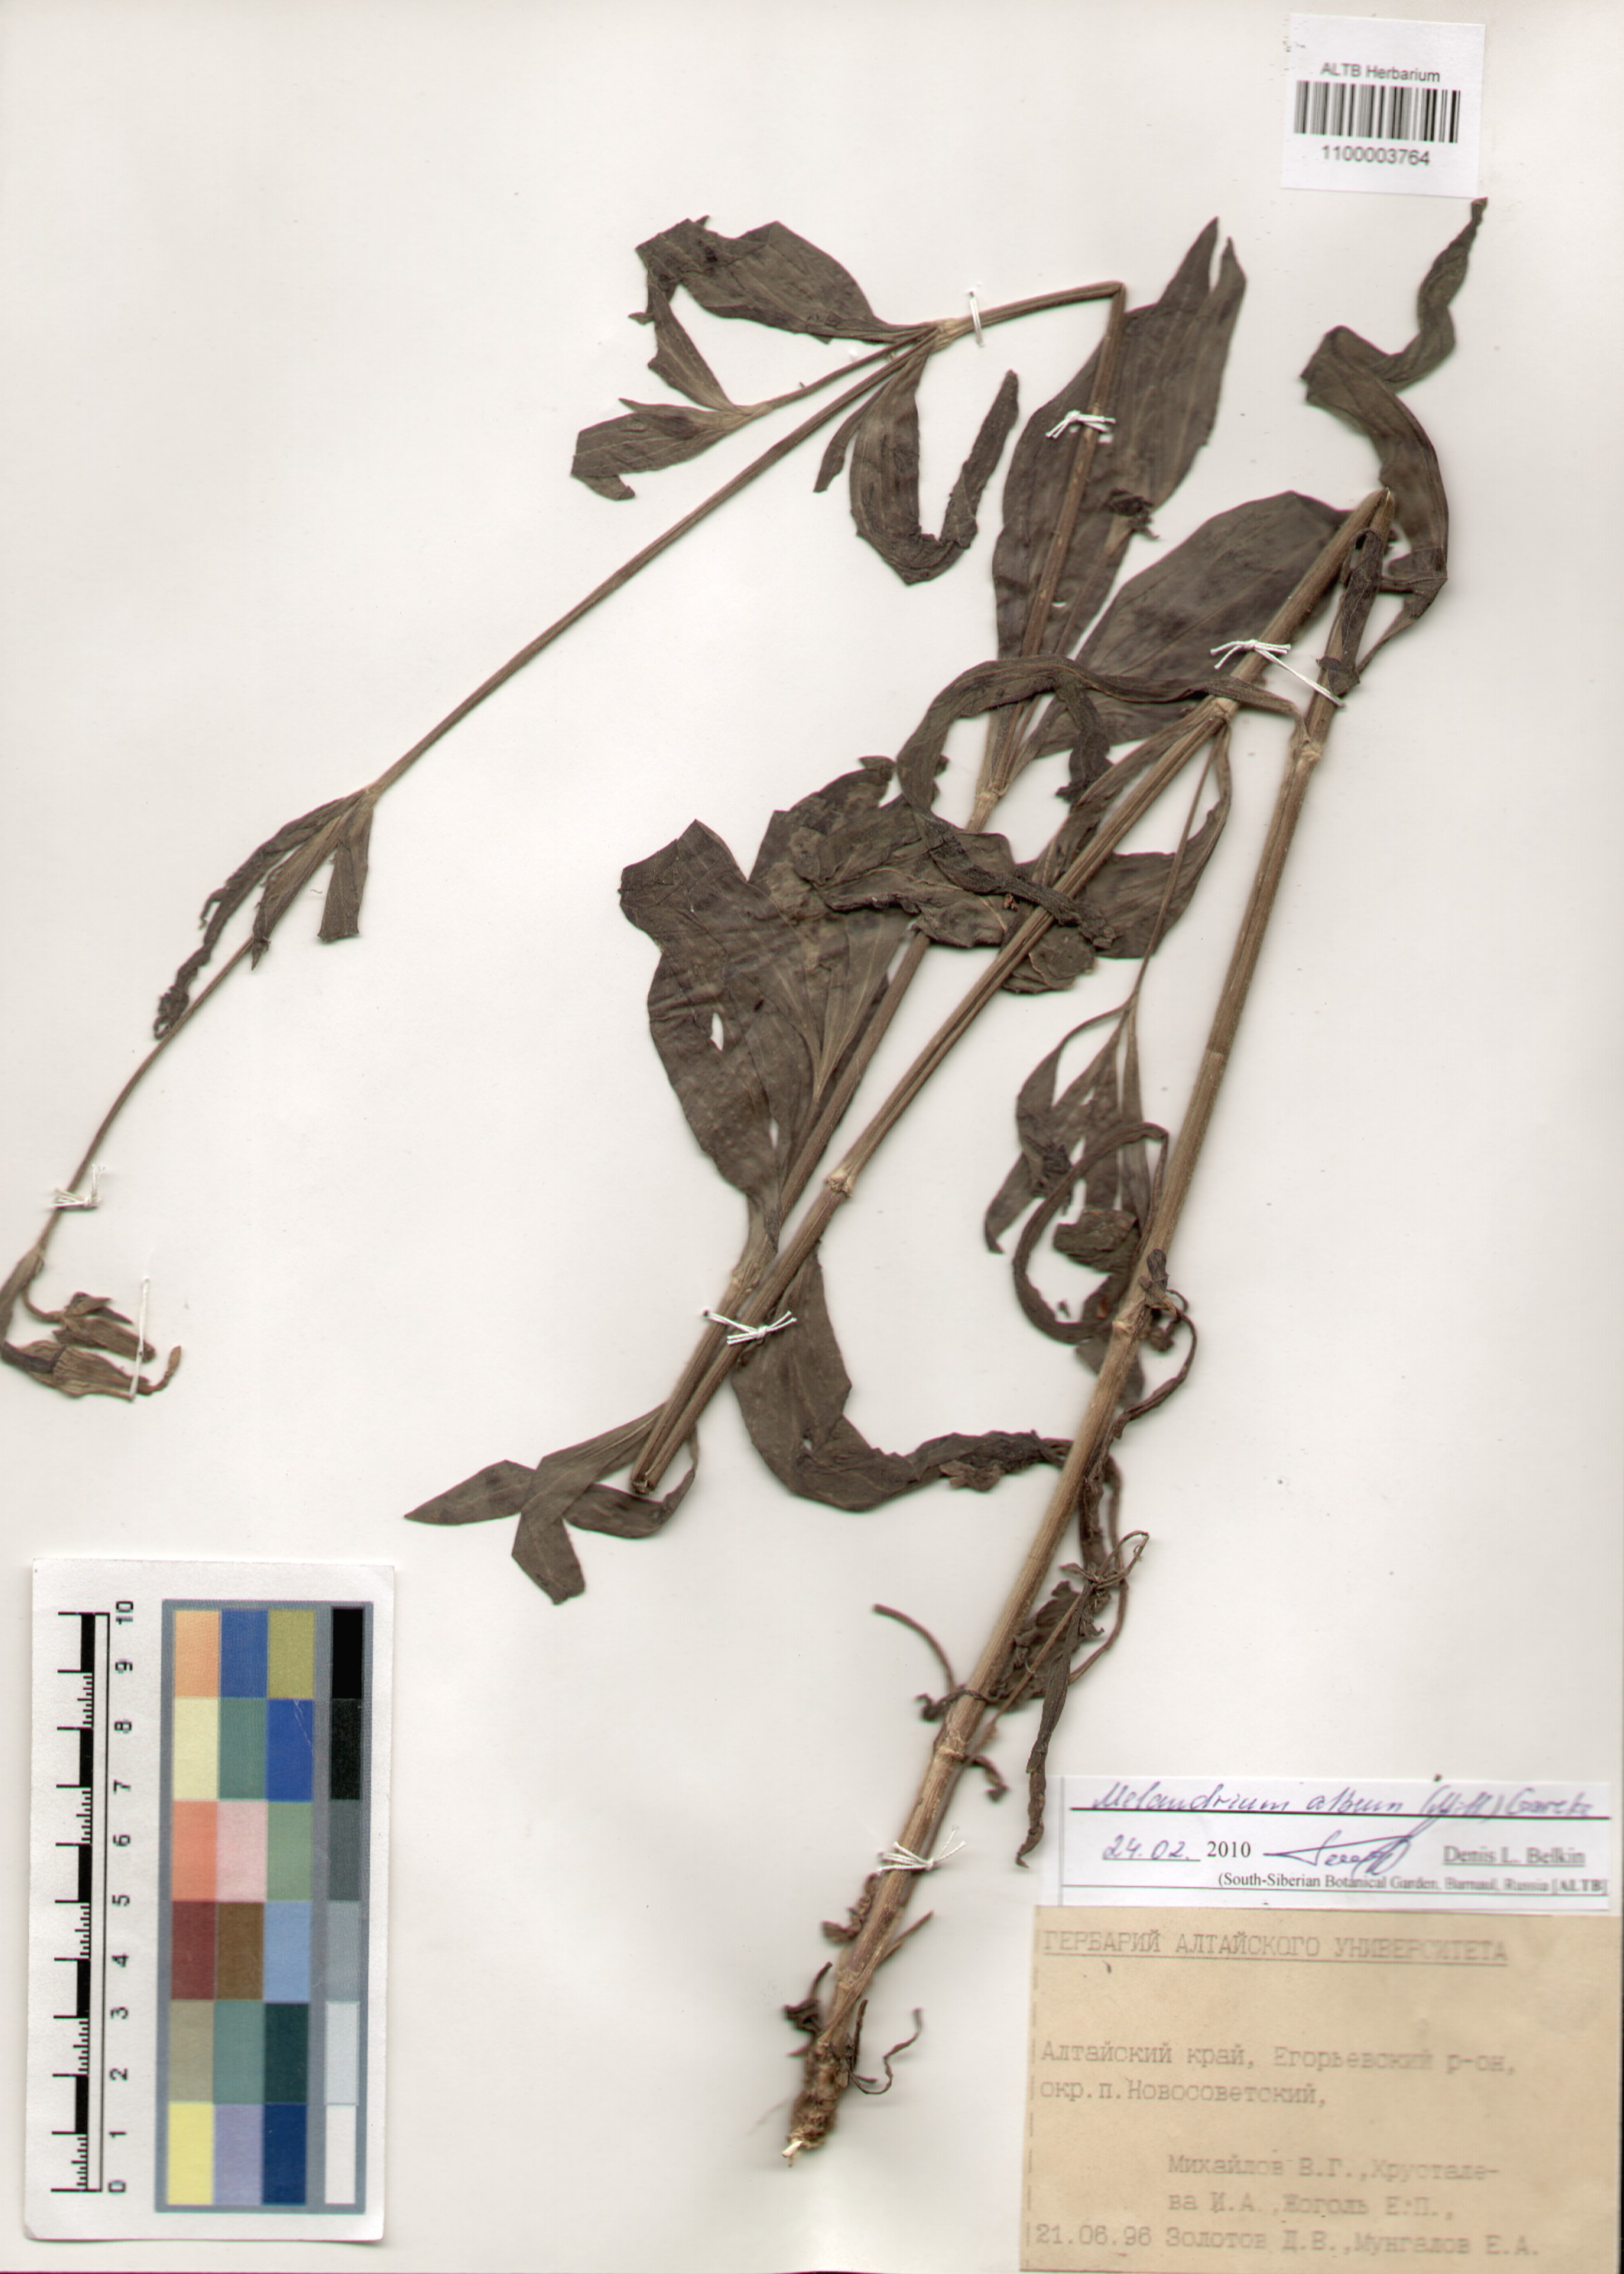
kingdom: Plantae
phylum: Tracheophyta
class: Magnoliopsida
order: Caryophyllales
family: Caryophyllaceae
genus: Silene
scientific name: Silene latifolia
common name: White campion
